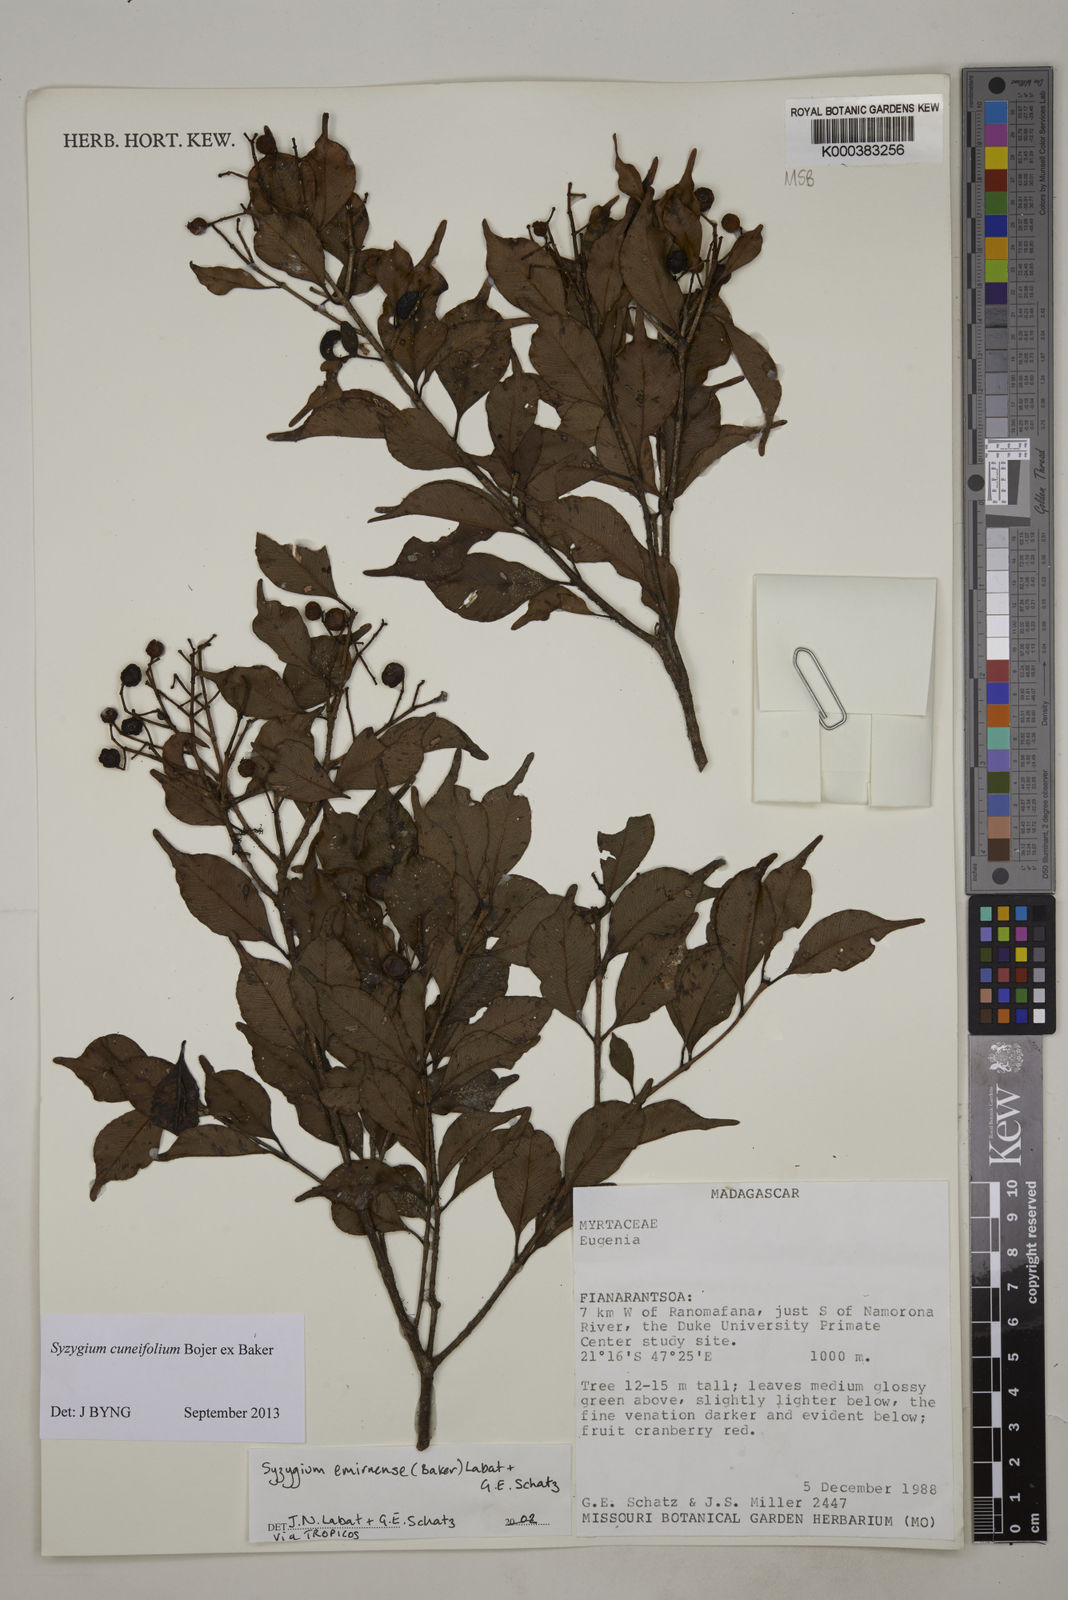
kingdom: Plantae
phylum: Tracheophyta
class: Magnoliopsida
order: Myrtales
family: Myrtaceae
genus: Syzygium
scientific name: Syzygium emirnense
